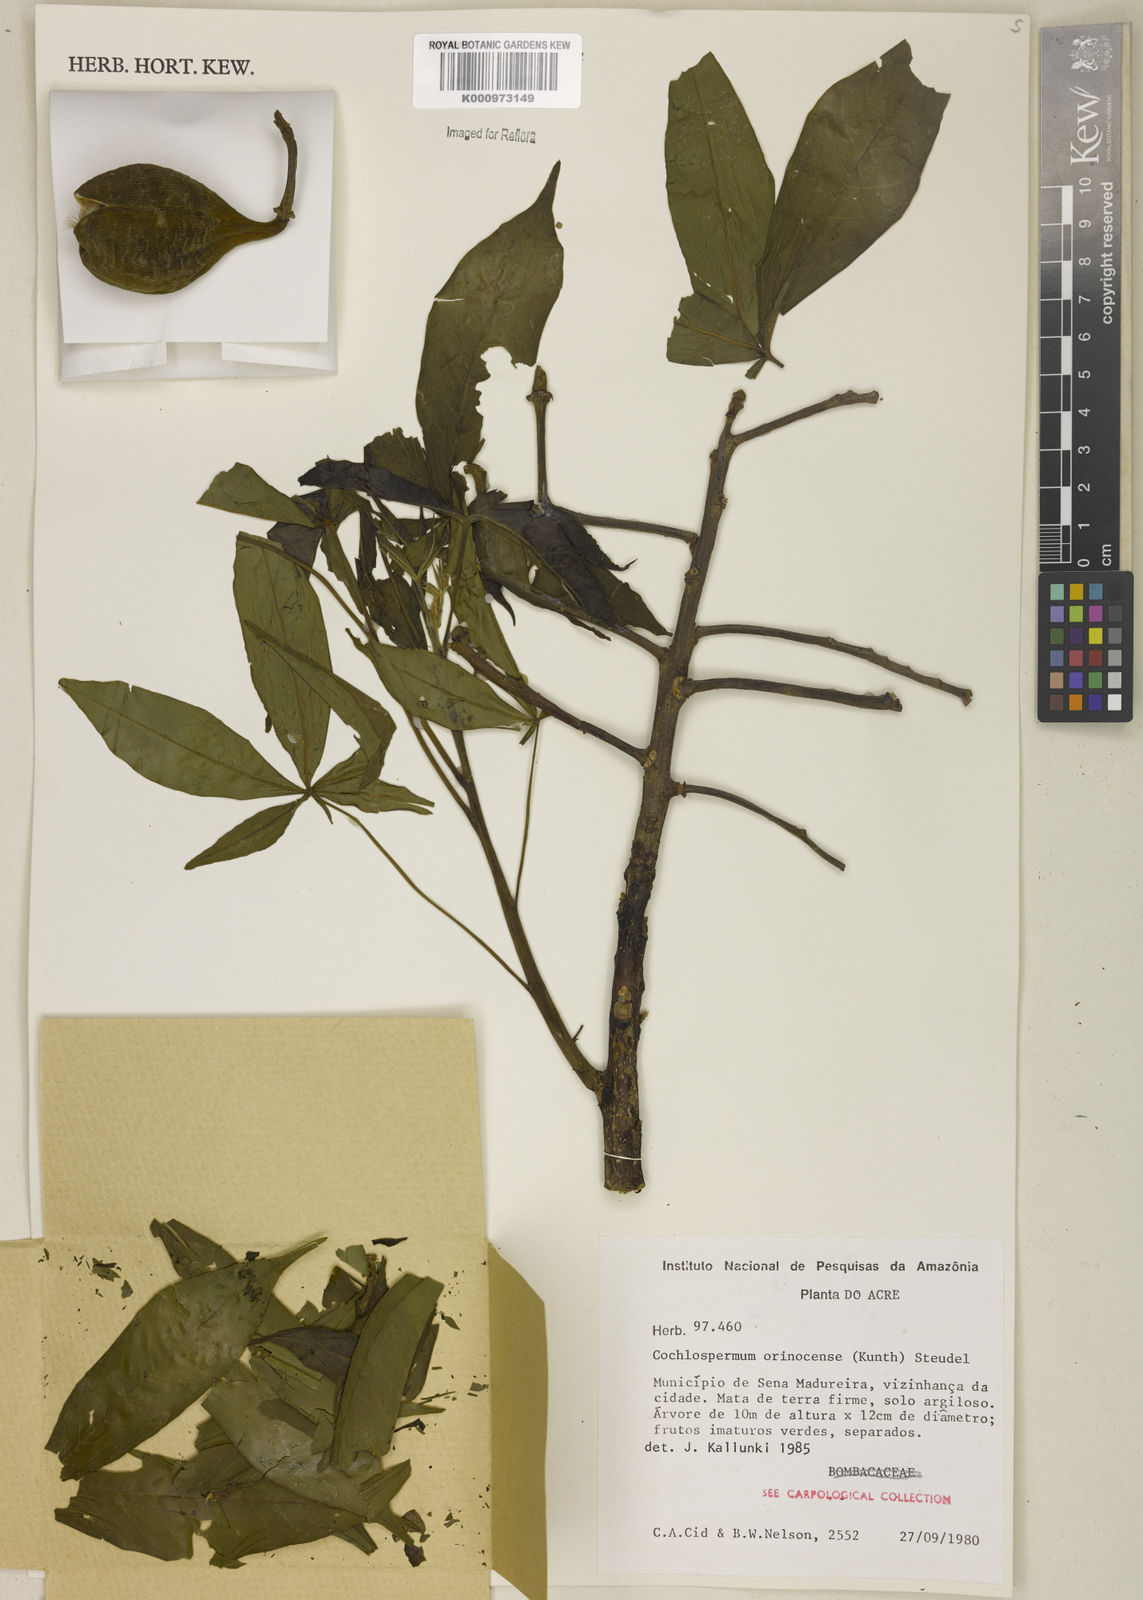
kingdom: Plantae
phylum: Tracheophyta
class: Magnoliopsida
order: Malvales
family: Cochlospermaceae
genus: Cochlospermum
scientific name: Cochlospermum orinocense
